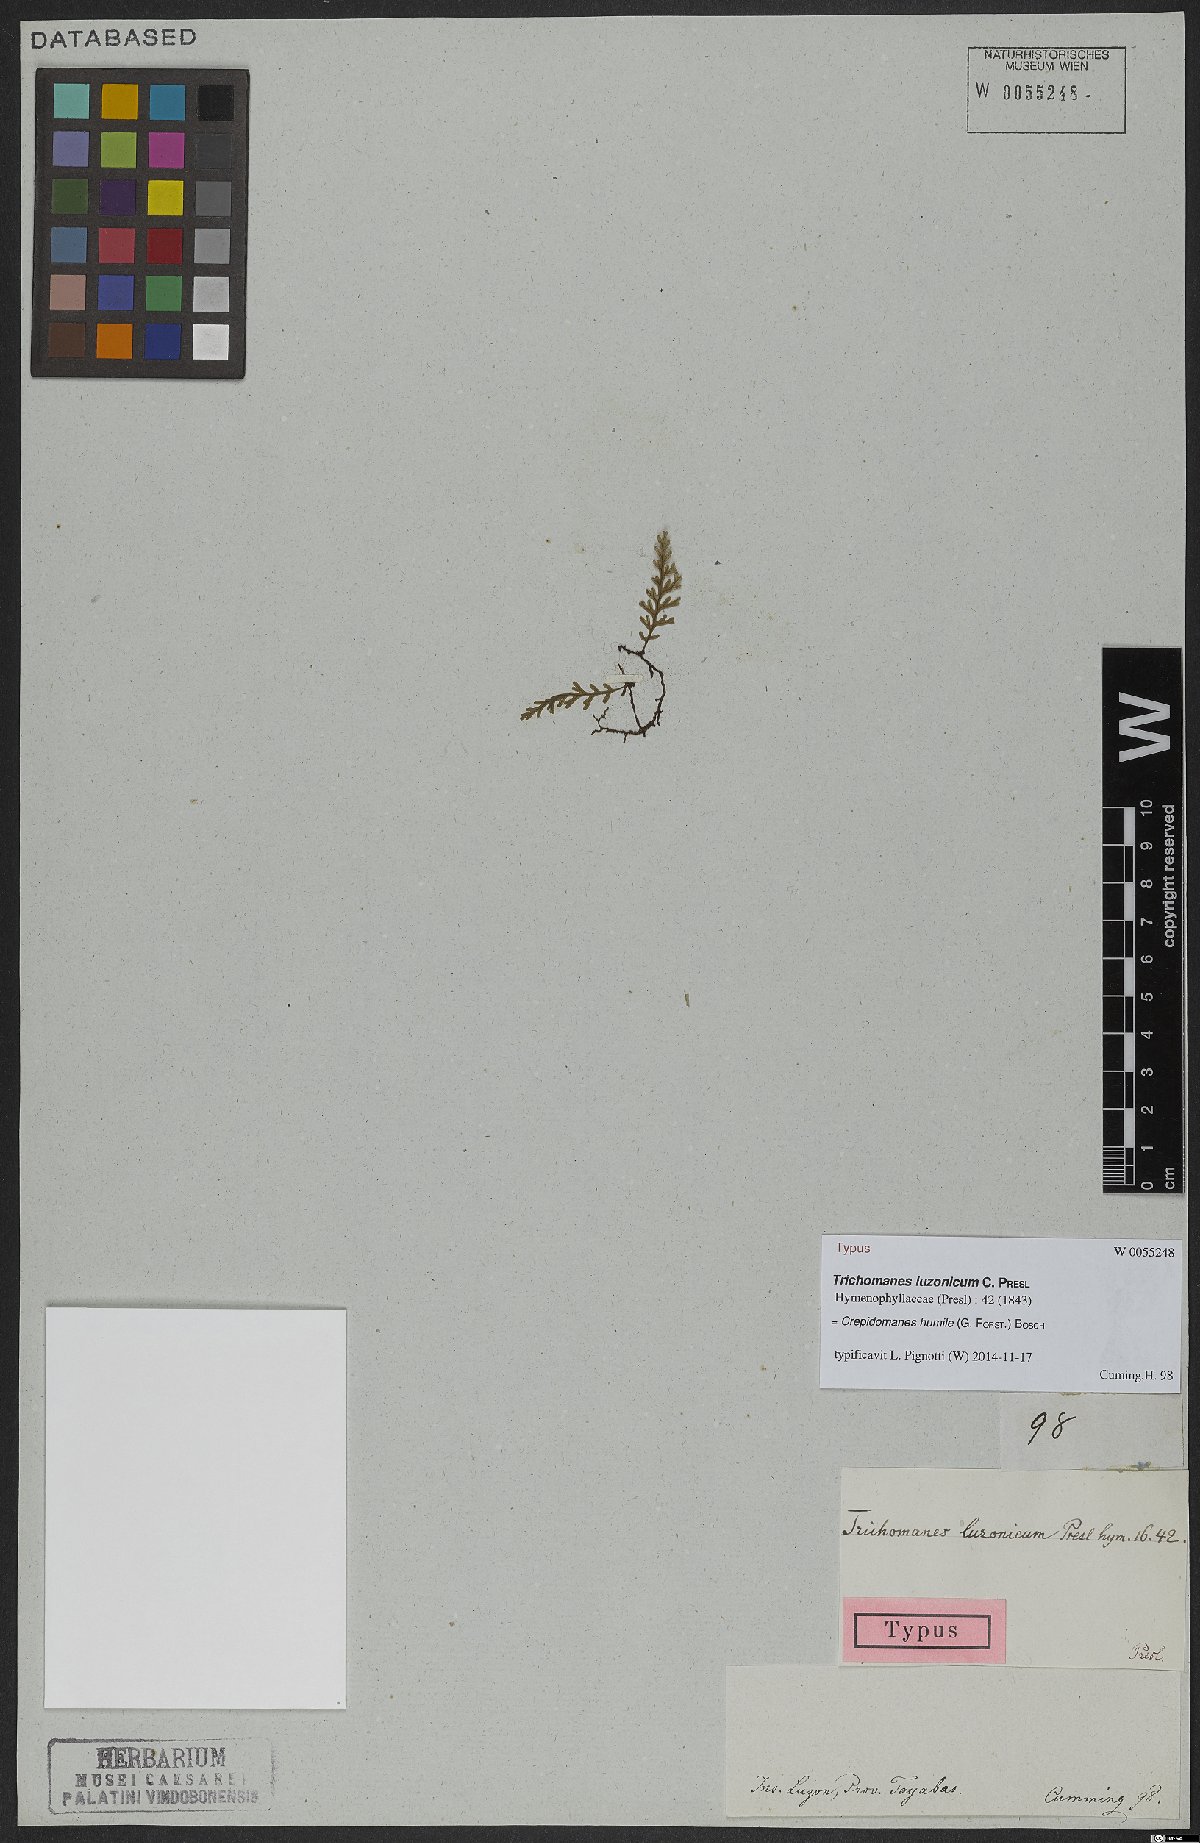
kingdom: Plantae
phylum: Tracheophyta
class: Polypodiopsida
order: Hymenophyllales
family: Hymenophyllaceae
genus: Crepidomanes
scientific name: Crepidomanes humile
